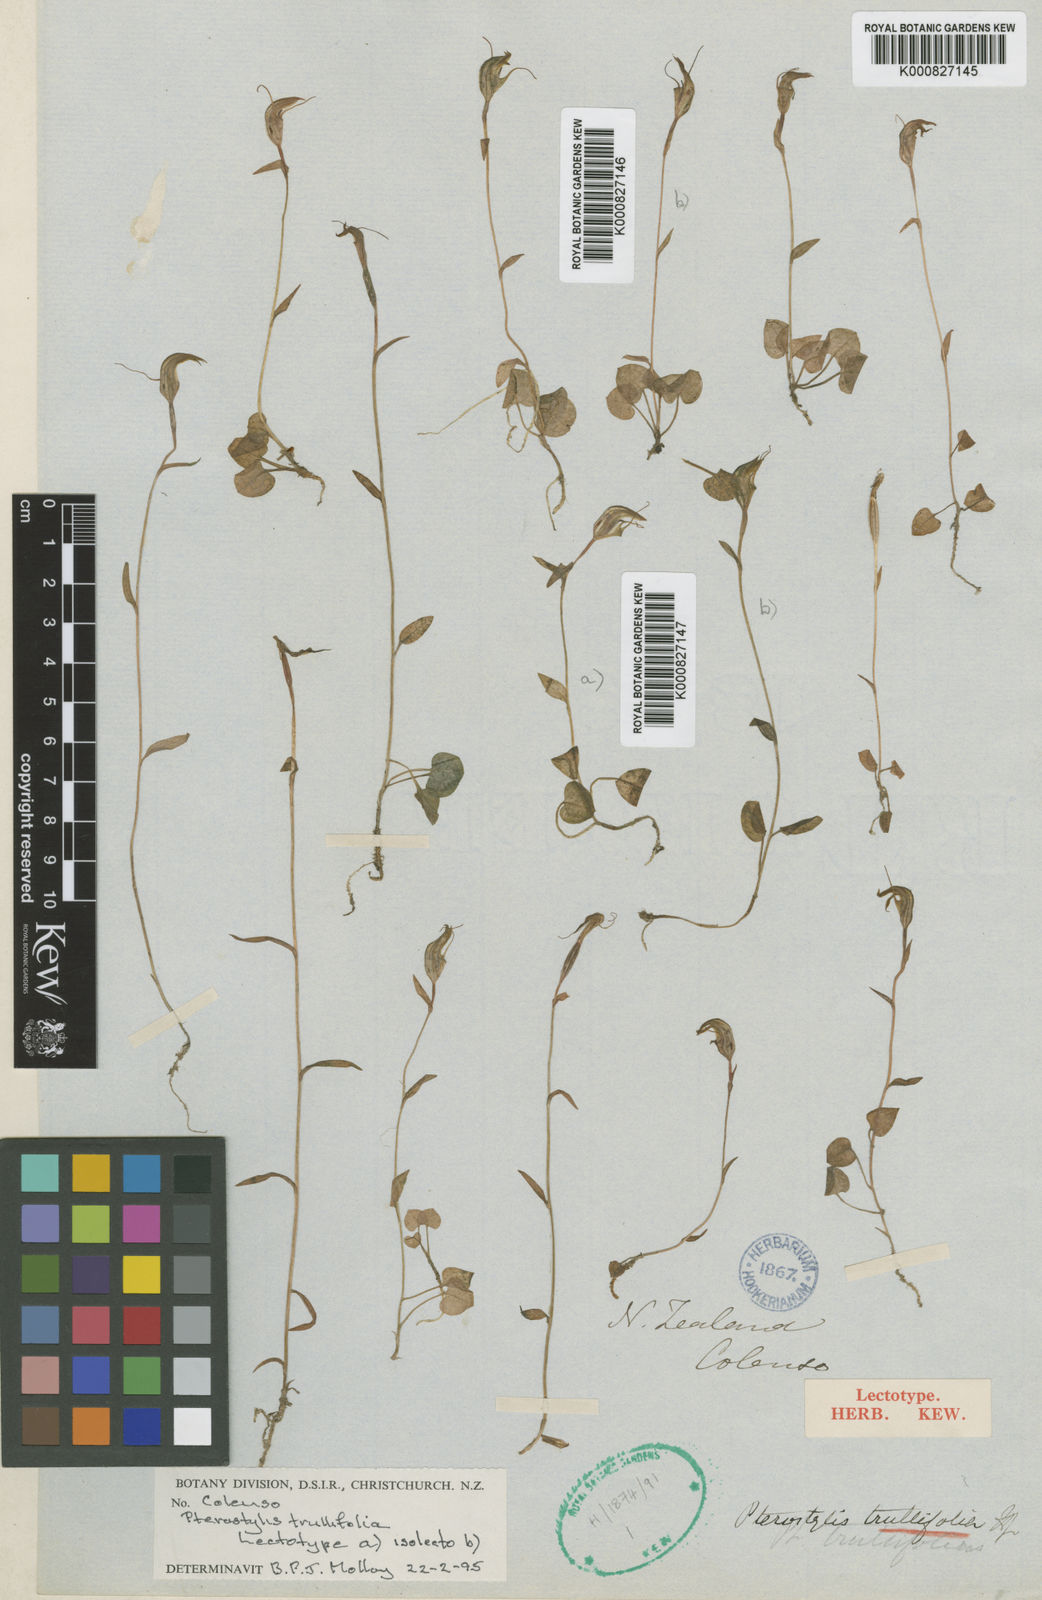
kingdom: Plantae
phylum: Tracheophyta
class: Liliopsida
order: Asparagales
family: Orchidaceae
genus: Pterostylis
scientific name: Pterostylis trullifolia
